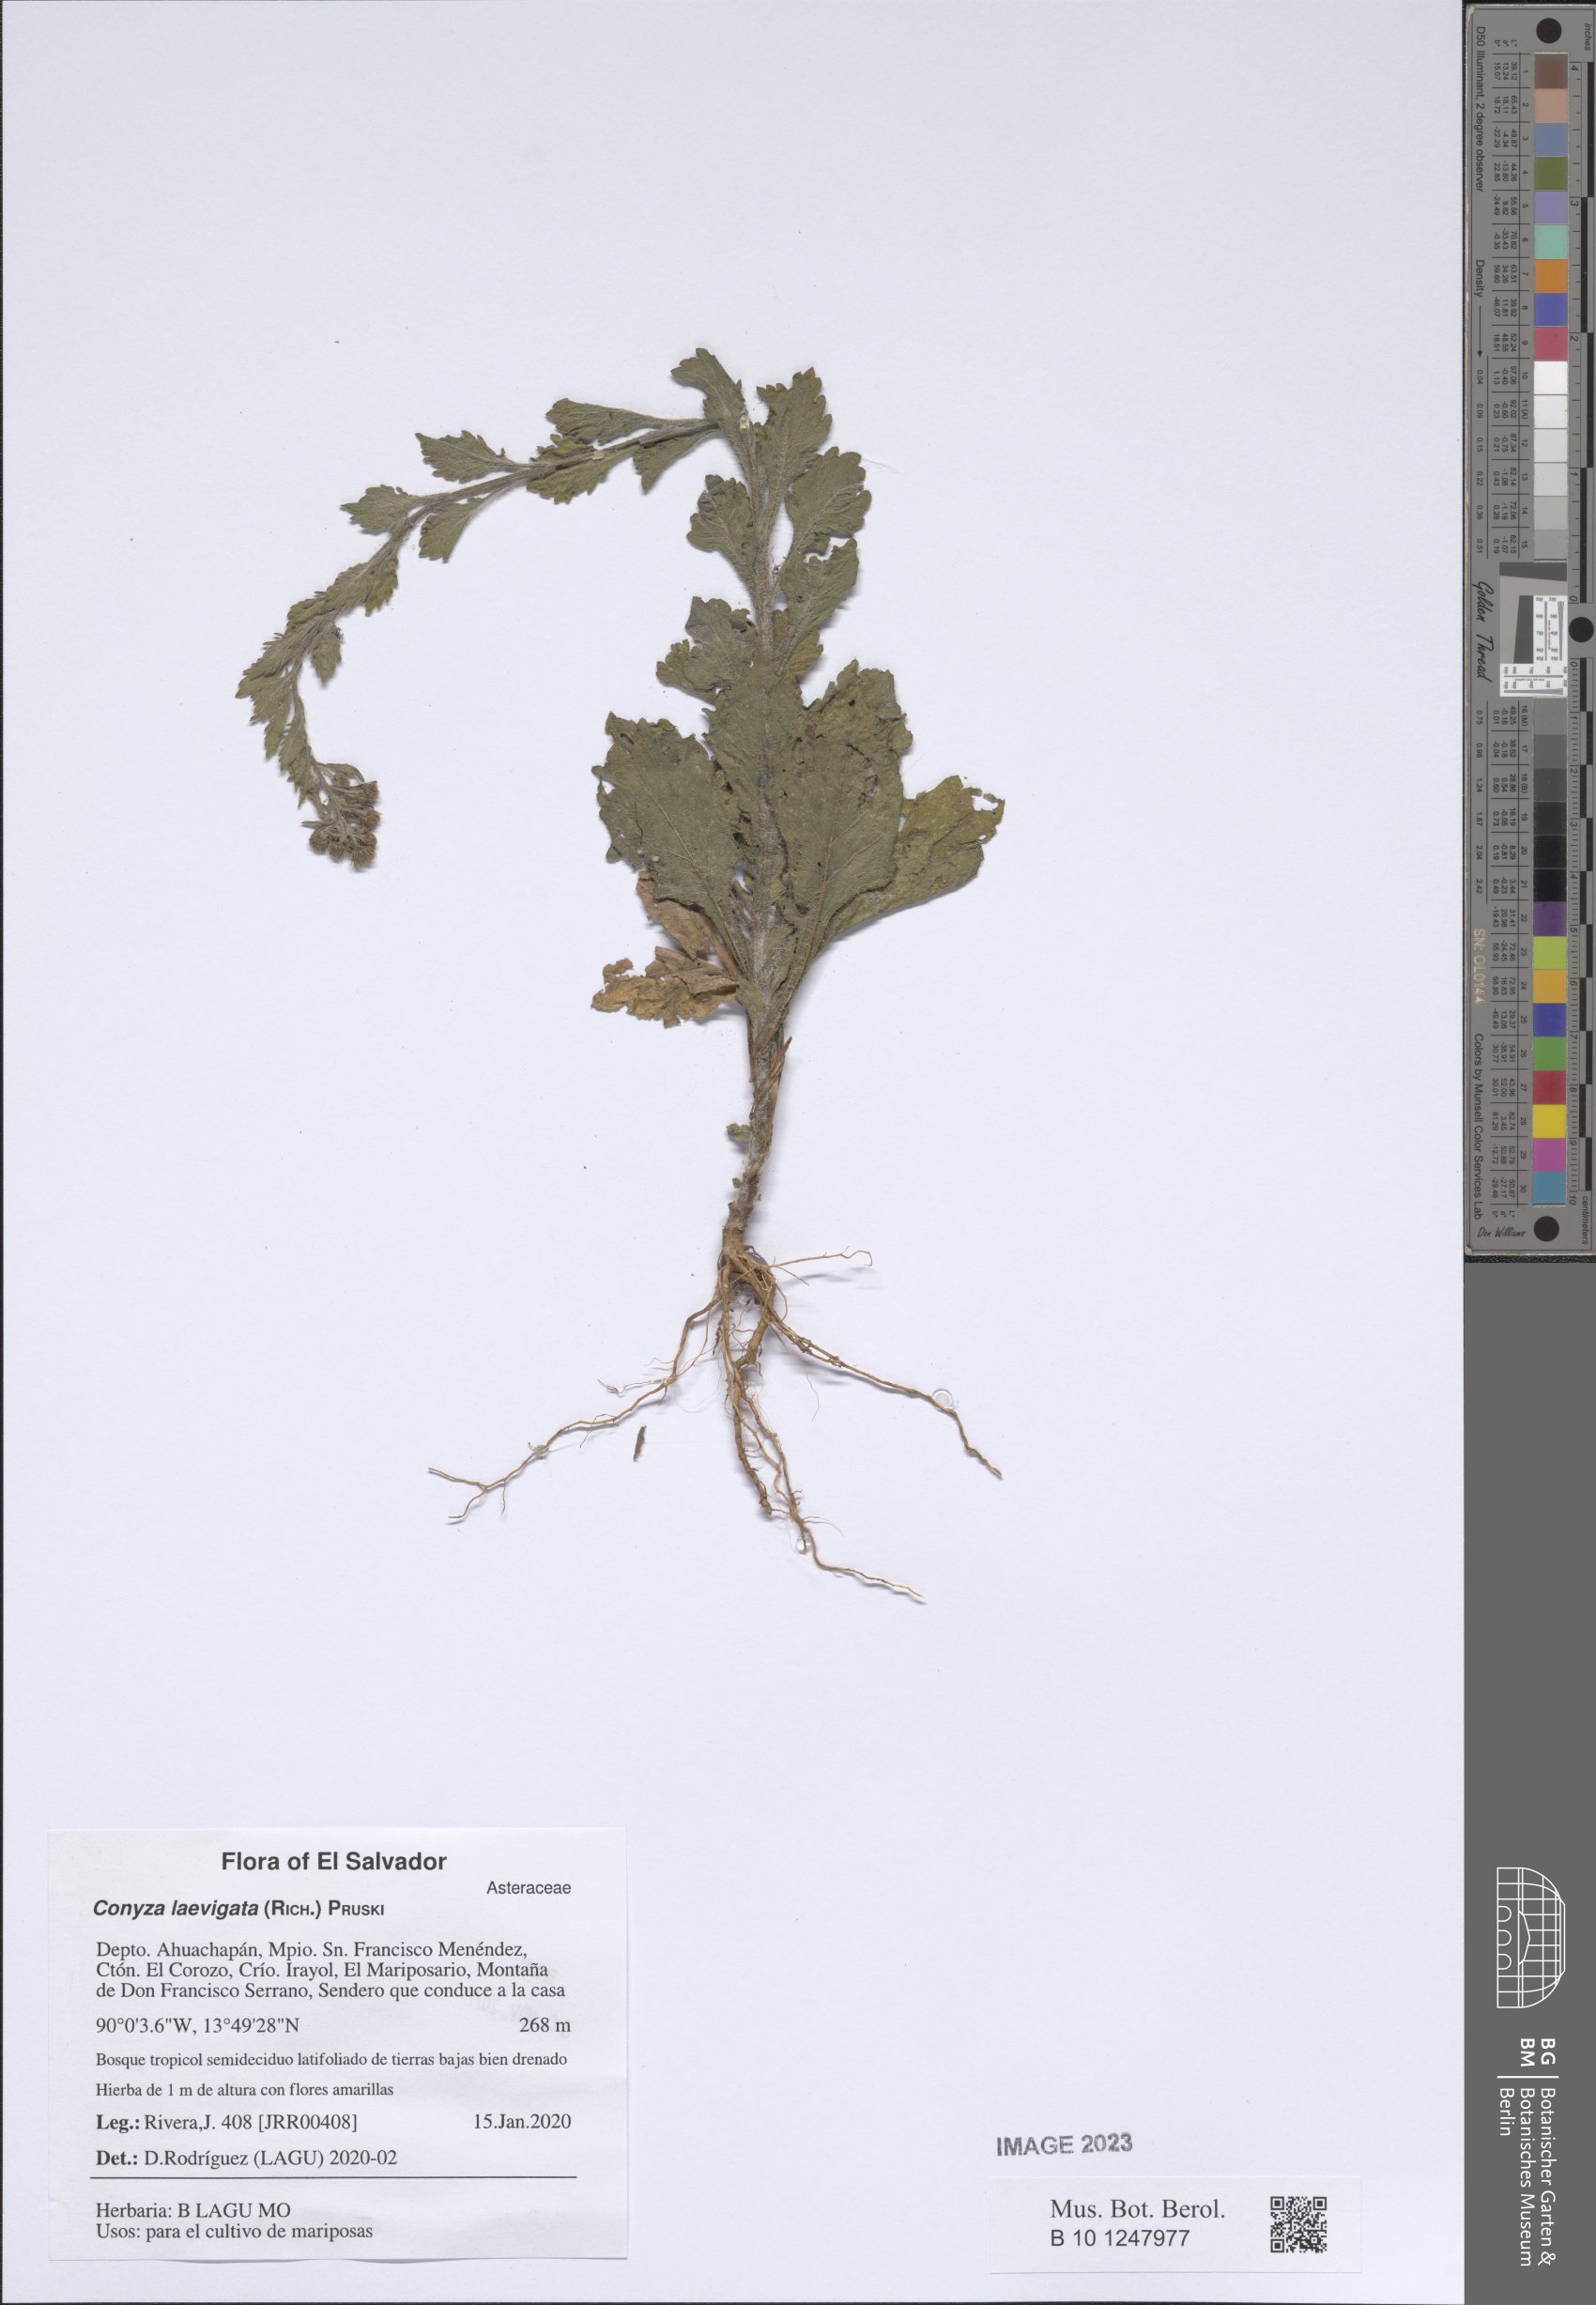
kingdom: Plantae
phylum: Tracheophyta
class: Magnoliopsida
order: Asterales
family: Asteraceae
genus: Erigeron
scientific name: Erigeron laevigatus
